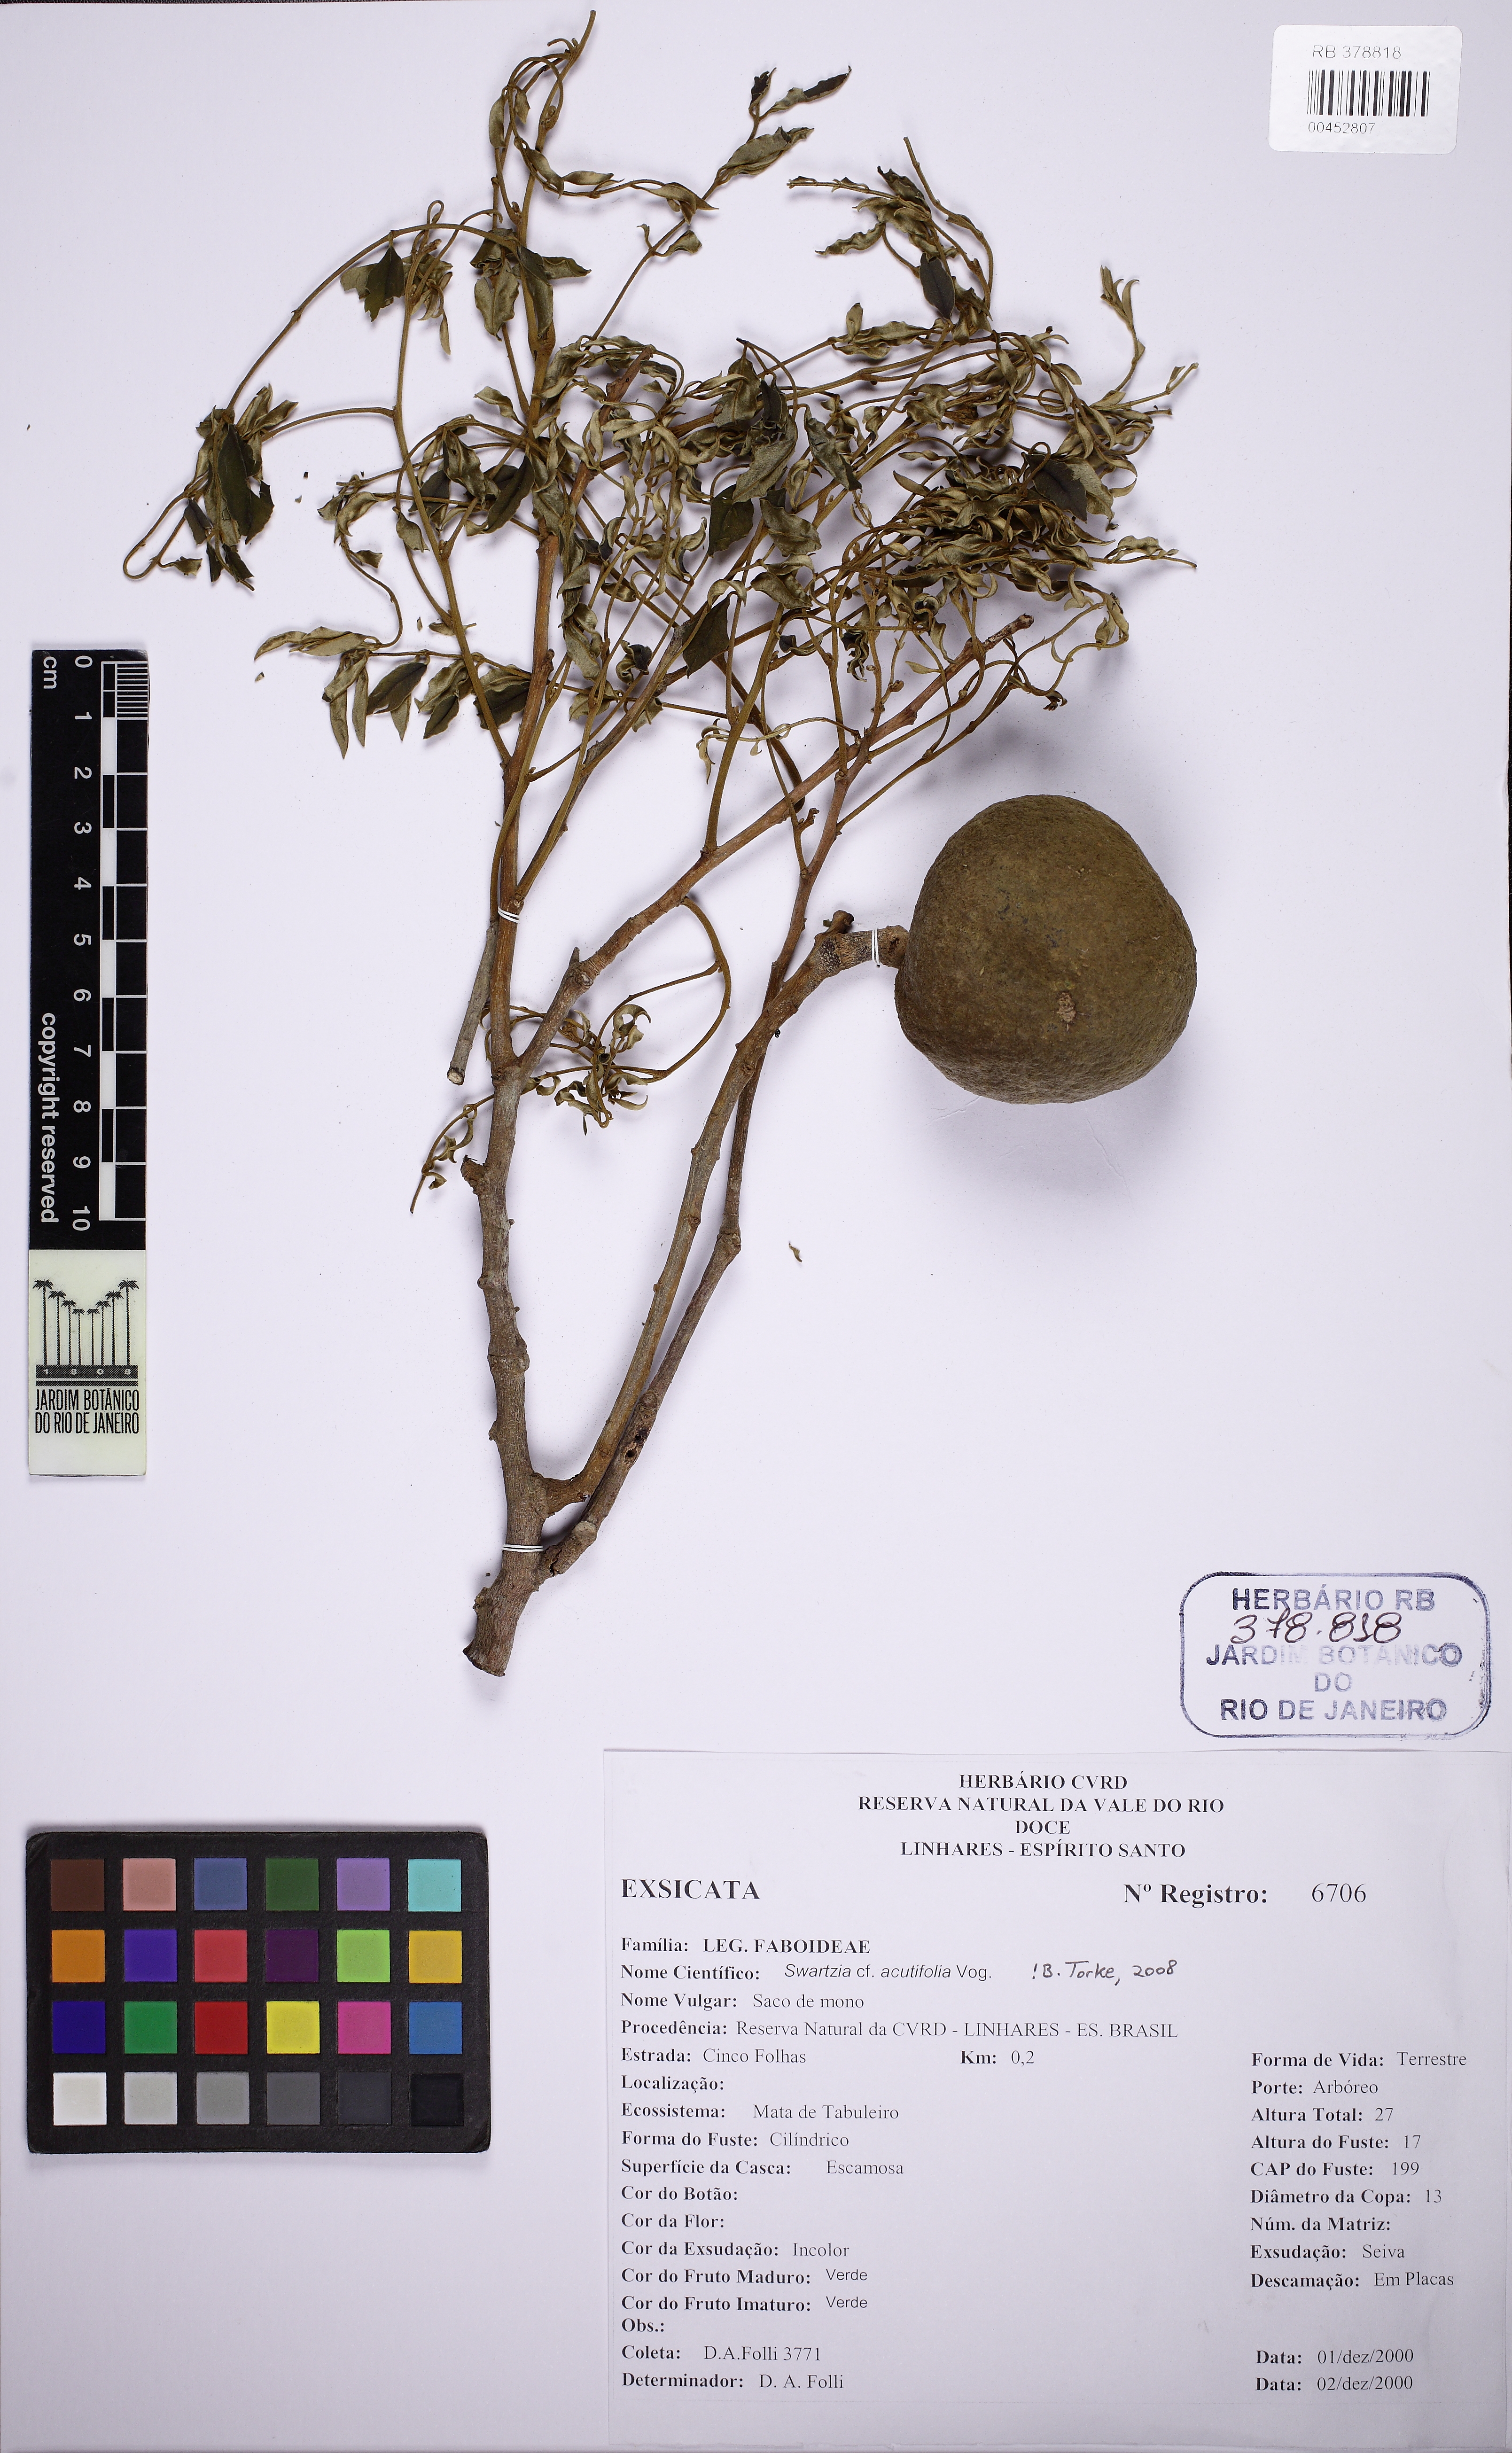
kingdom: Plantae
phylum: Tracheophyta
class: Magnoliopsida
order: Fabales
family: Fabaceae
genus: Swartzia
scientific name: Swartzia acutifolia
